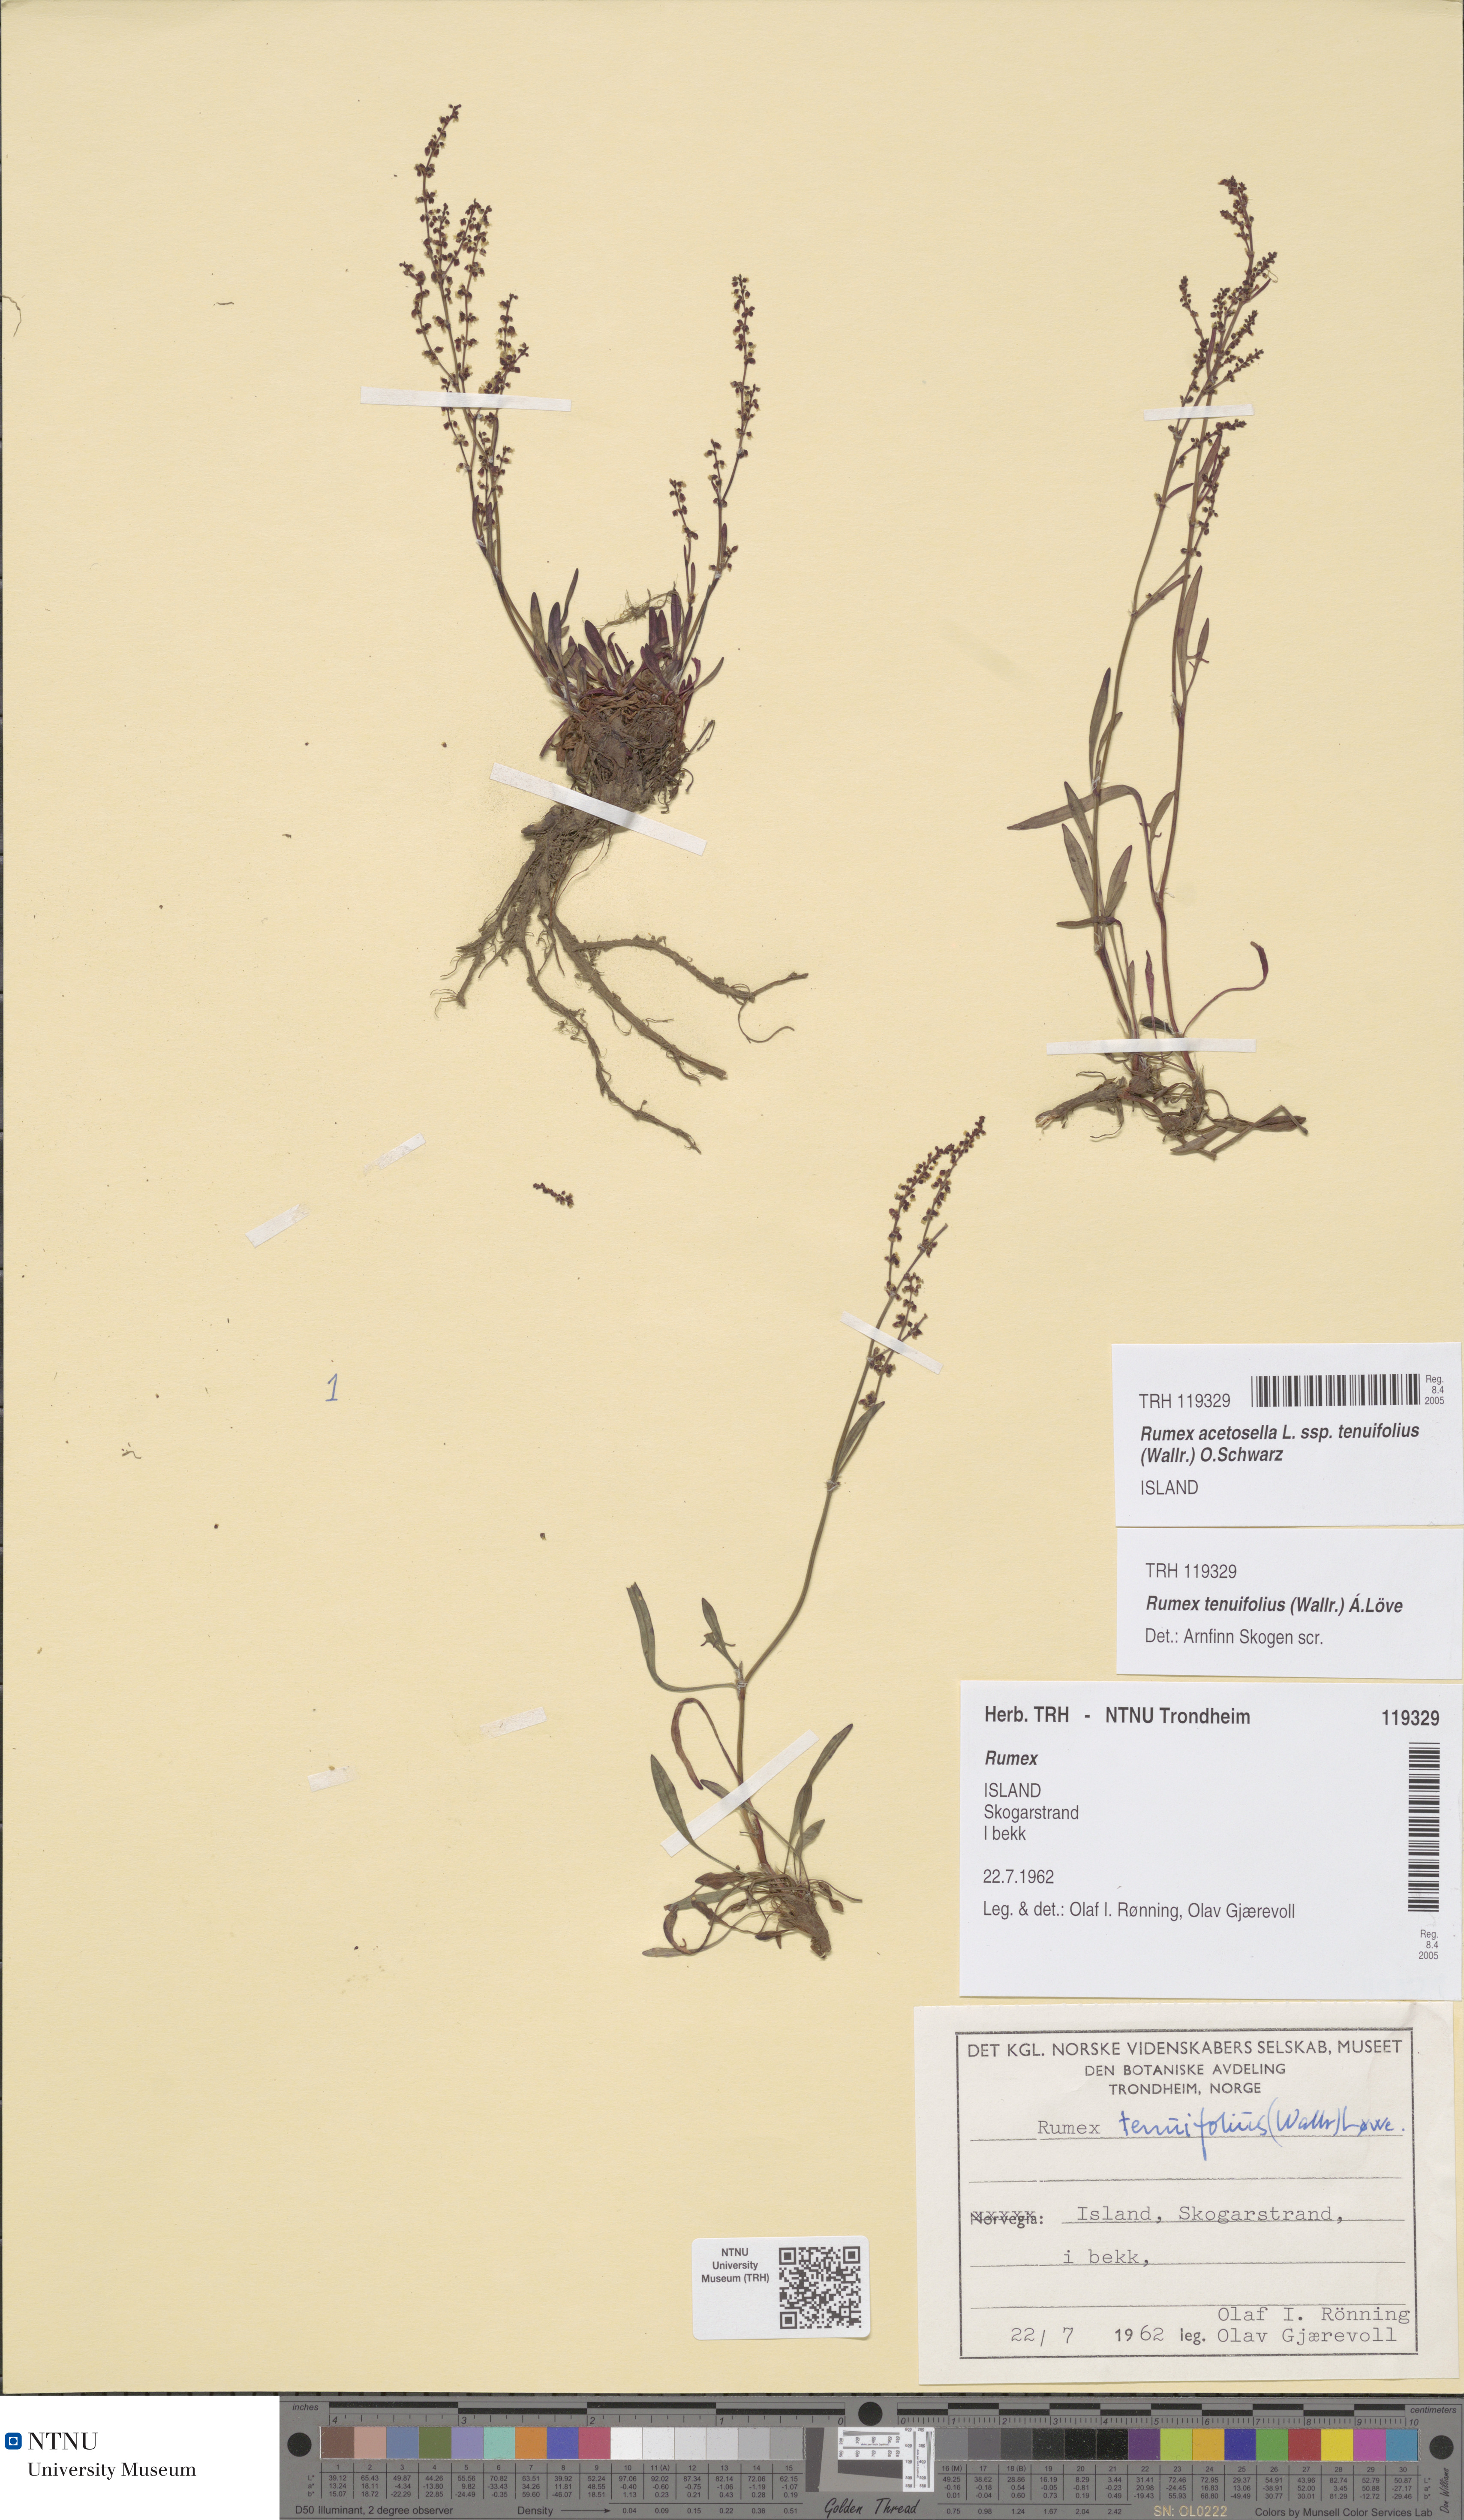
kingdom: Plantae
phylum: Tracheophyta
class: Magnoliopsida
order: Caryophyllales
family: Polygonaceae
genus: Rumex
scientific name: Rumex acetosella
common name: Common sheep sorrel
